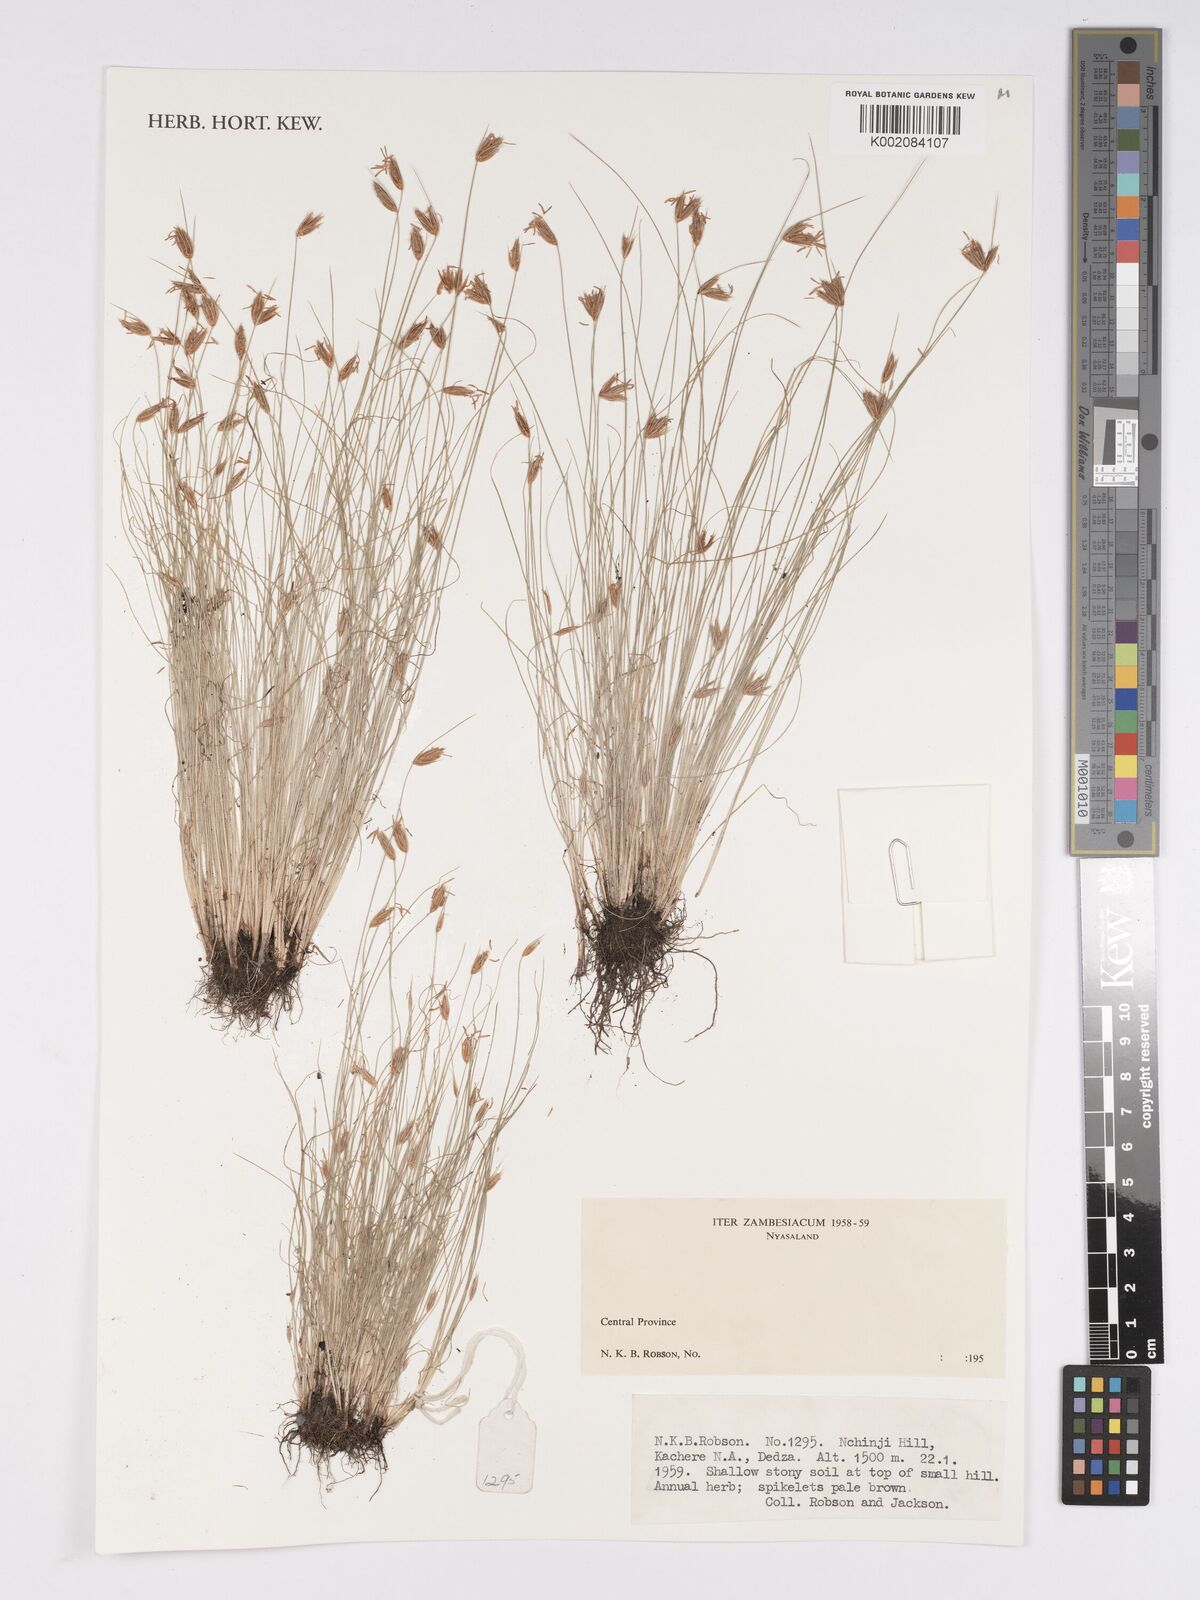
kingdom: Plantae
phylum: Tracheophyta
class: Liliopsida
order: Poales
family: Cyperaceae
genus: Bulbostylis
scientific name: Bulbostylis
